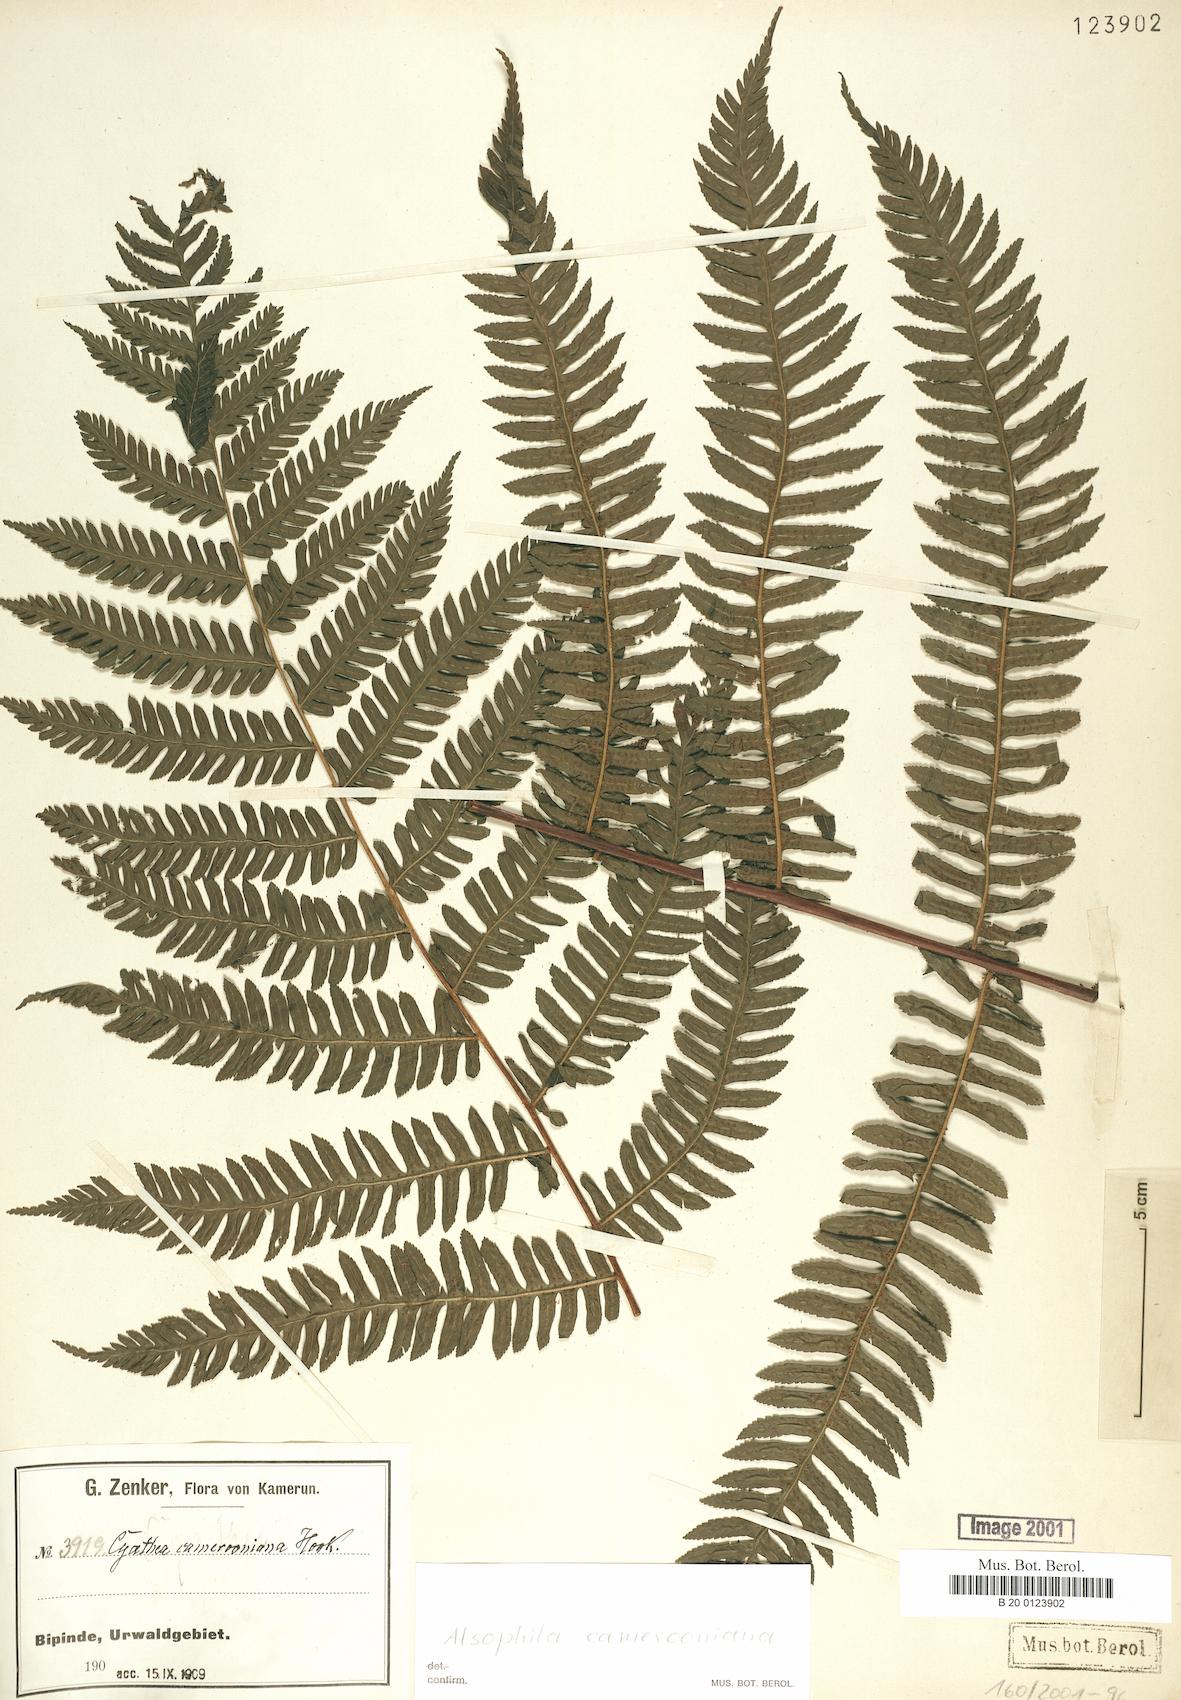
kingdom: Plantae
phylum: Tracheophyta
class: Polypodiopsida
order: Cyatheales
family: Cyatheaceae
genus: Alsophila
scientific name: Alsophila camerooniana
